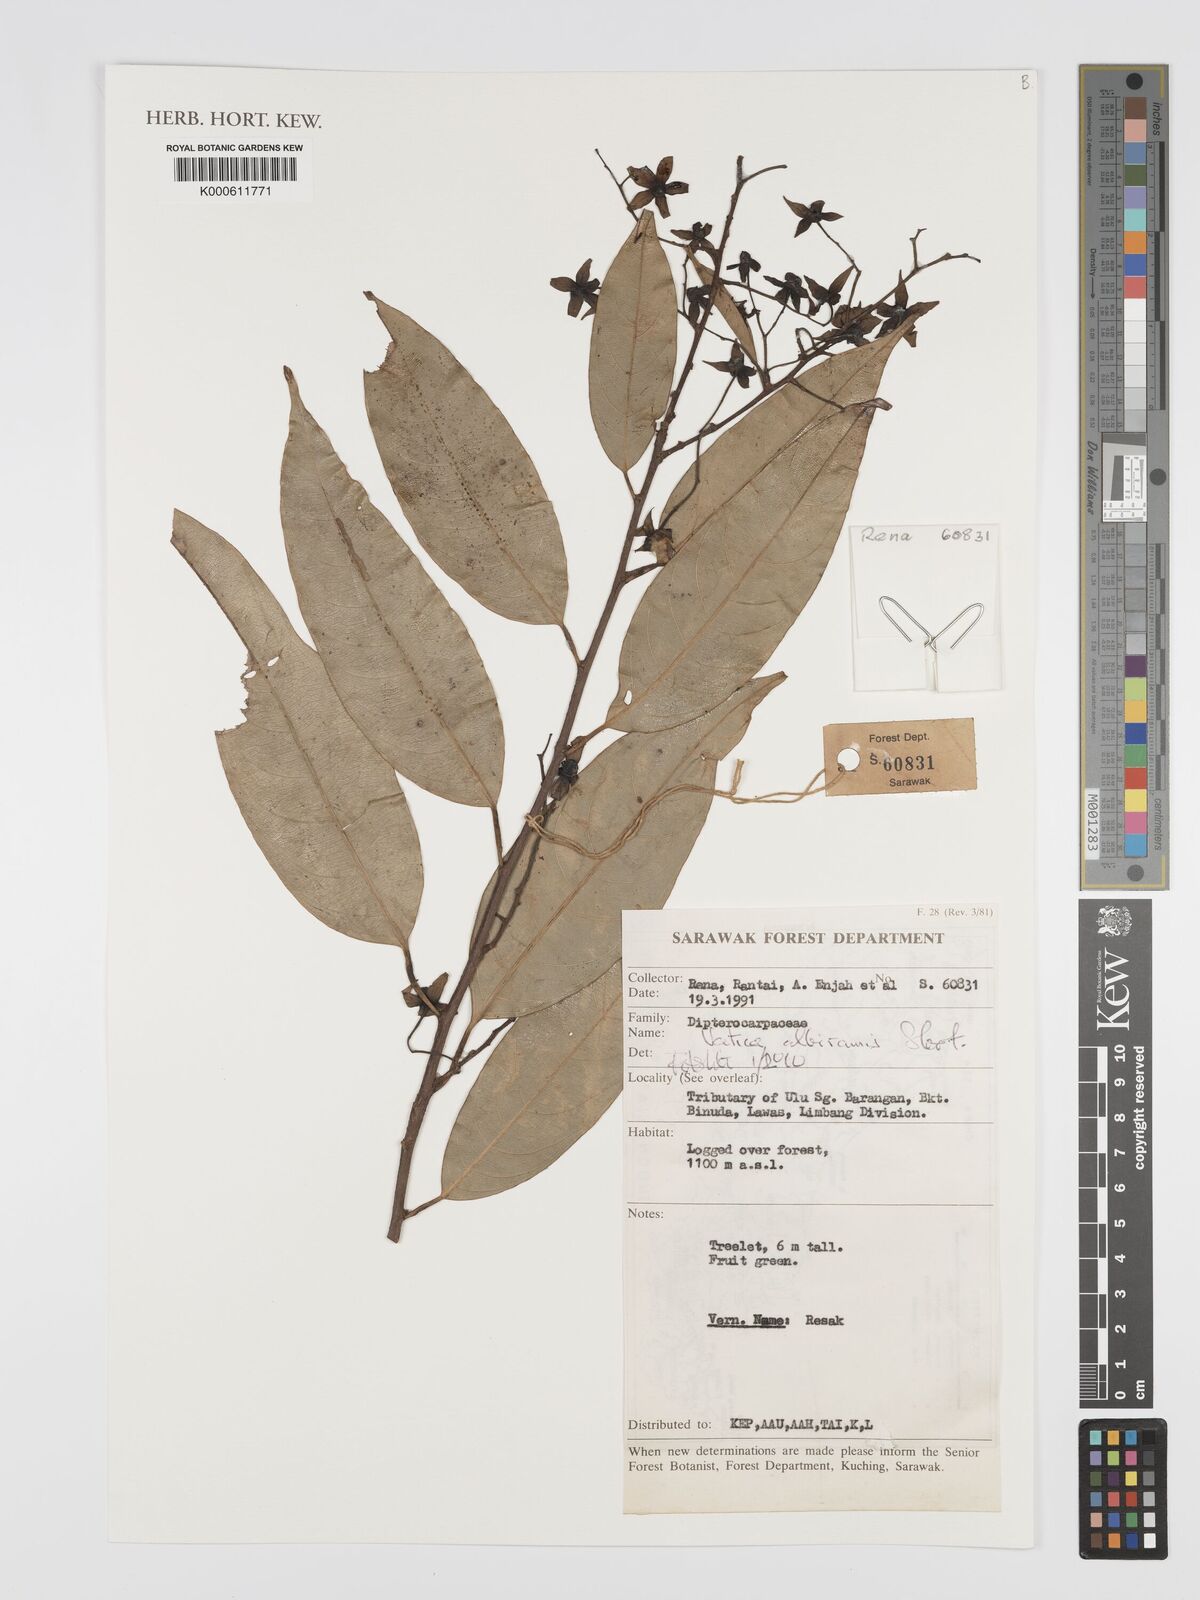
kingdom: Plantae
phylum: Tracheophyta
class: Magnoliopsida
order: Malvales
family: Dipterocarpaceae
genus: Vatica
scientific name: Vatica albiramis
